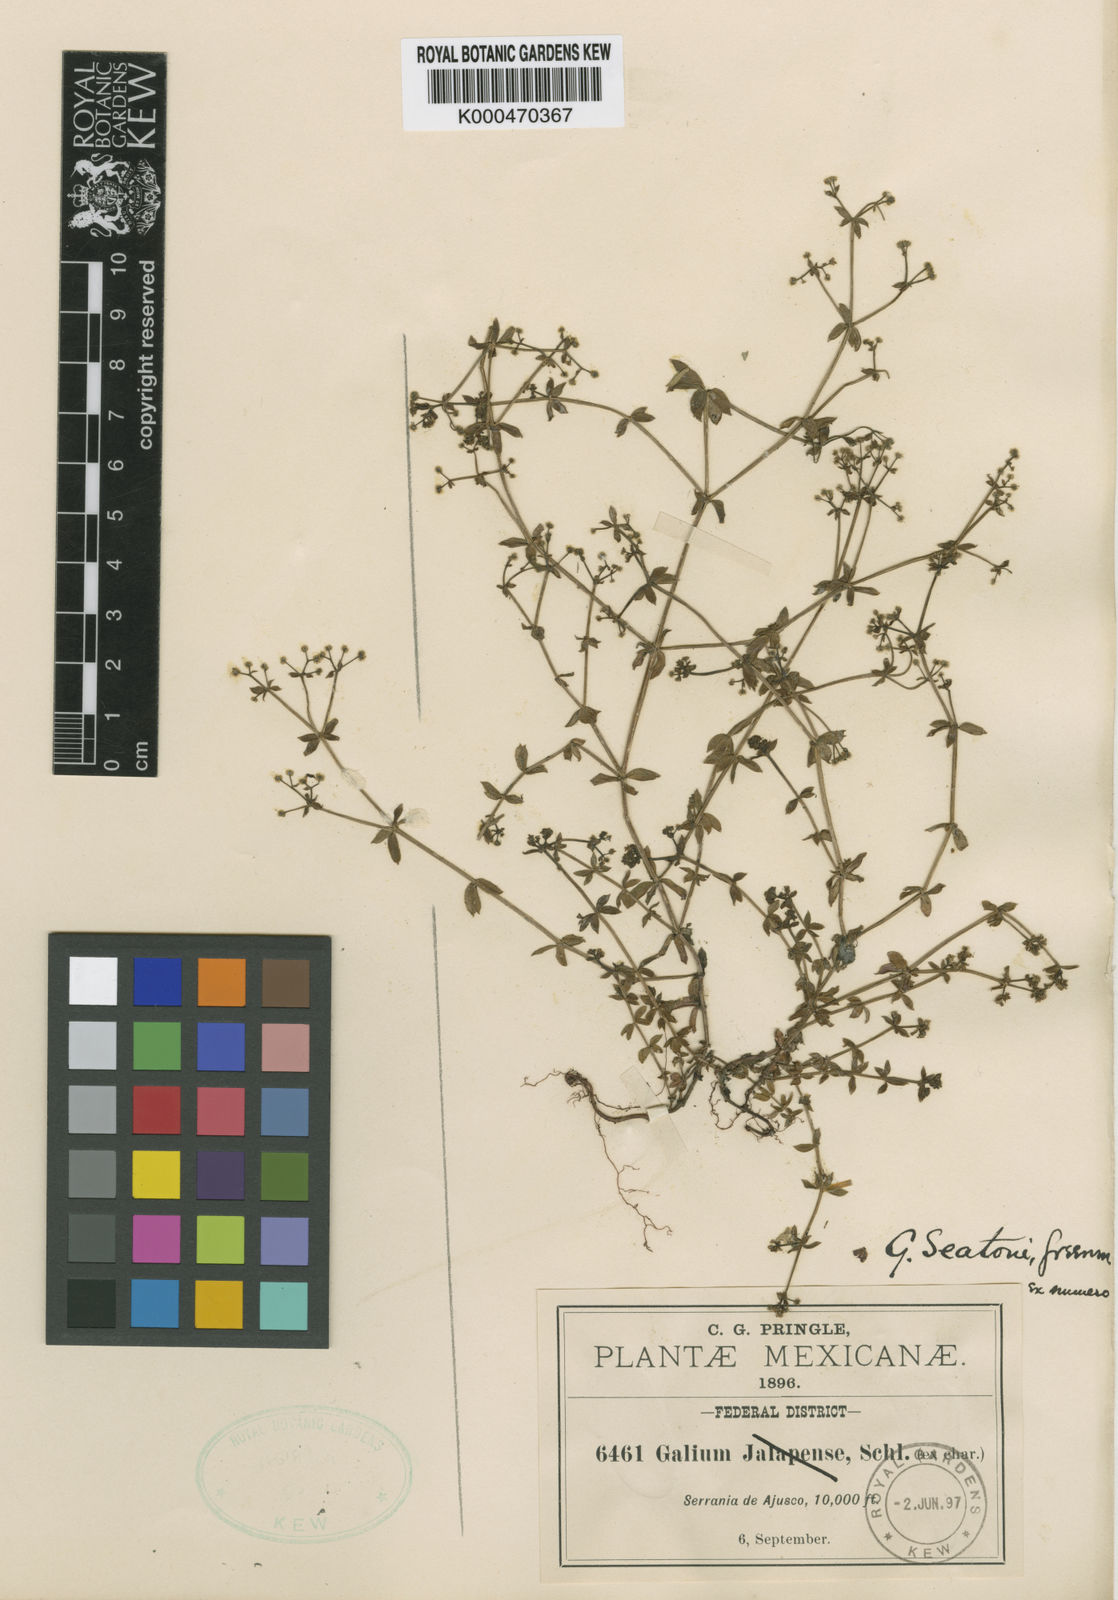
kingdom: Plantae
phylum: Tracheophyta
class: Magnoliopsida
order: Gentianales
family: Rubiaceae
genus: Galium
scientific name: Galium seatonii
